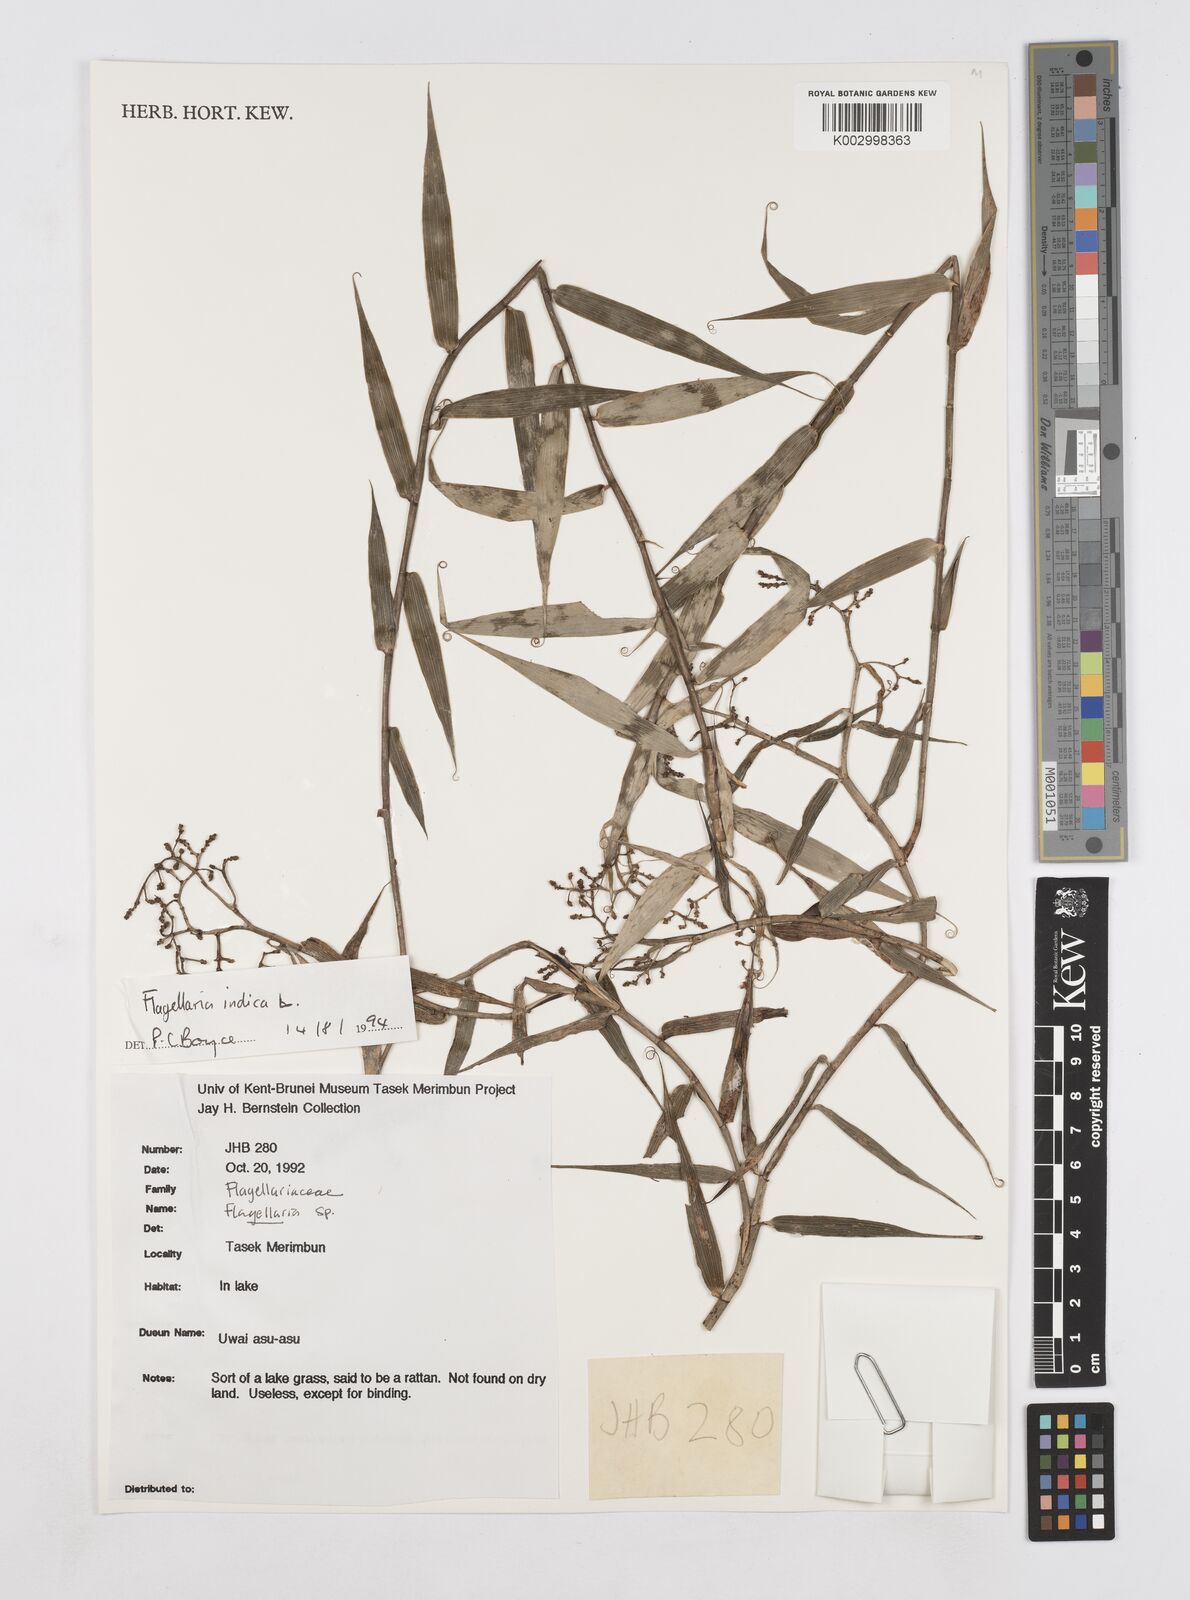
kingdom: Plantae
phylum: Tracheophyta
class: Liliopsida
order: Poales
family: Flagellariaceae
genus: Flagellaria
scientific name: Flagellaria indica
